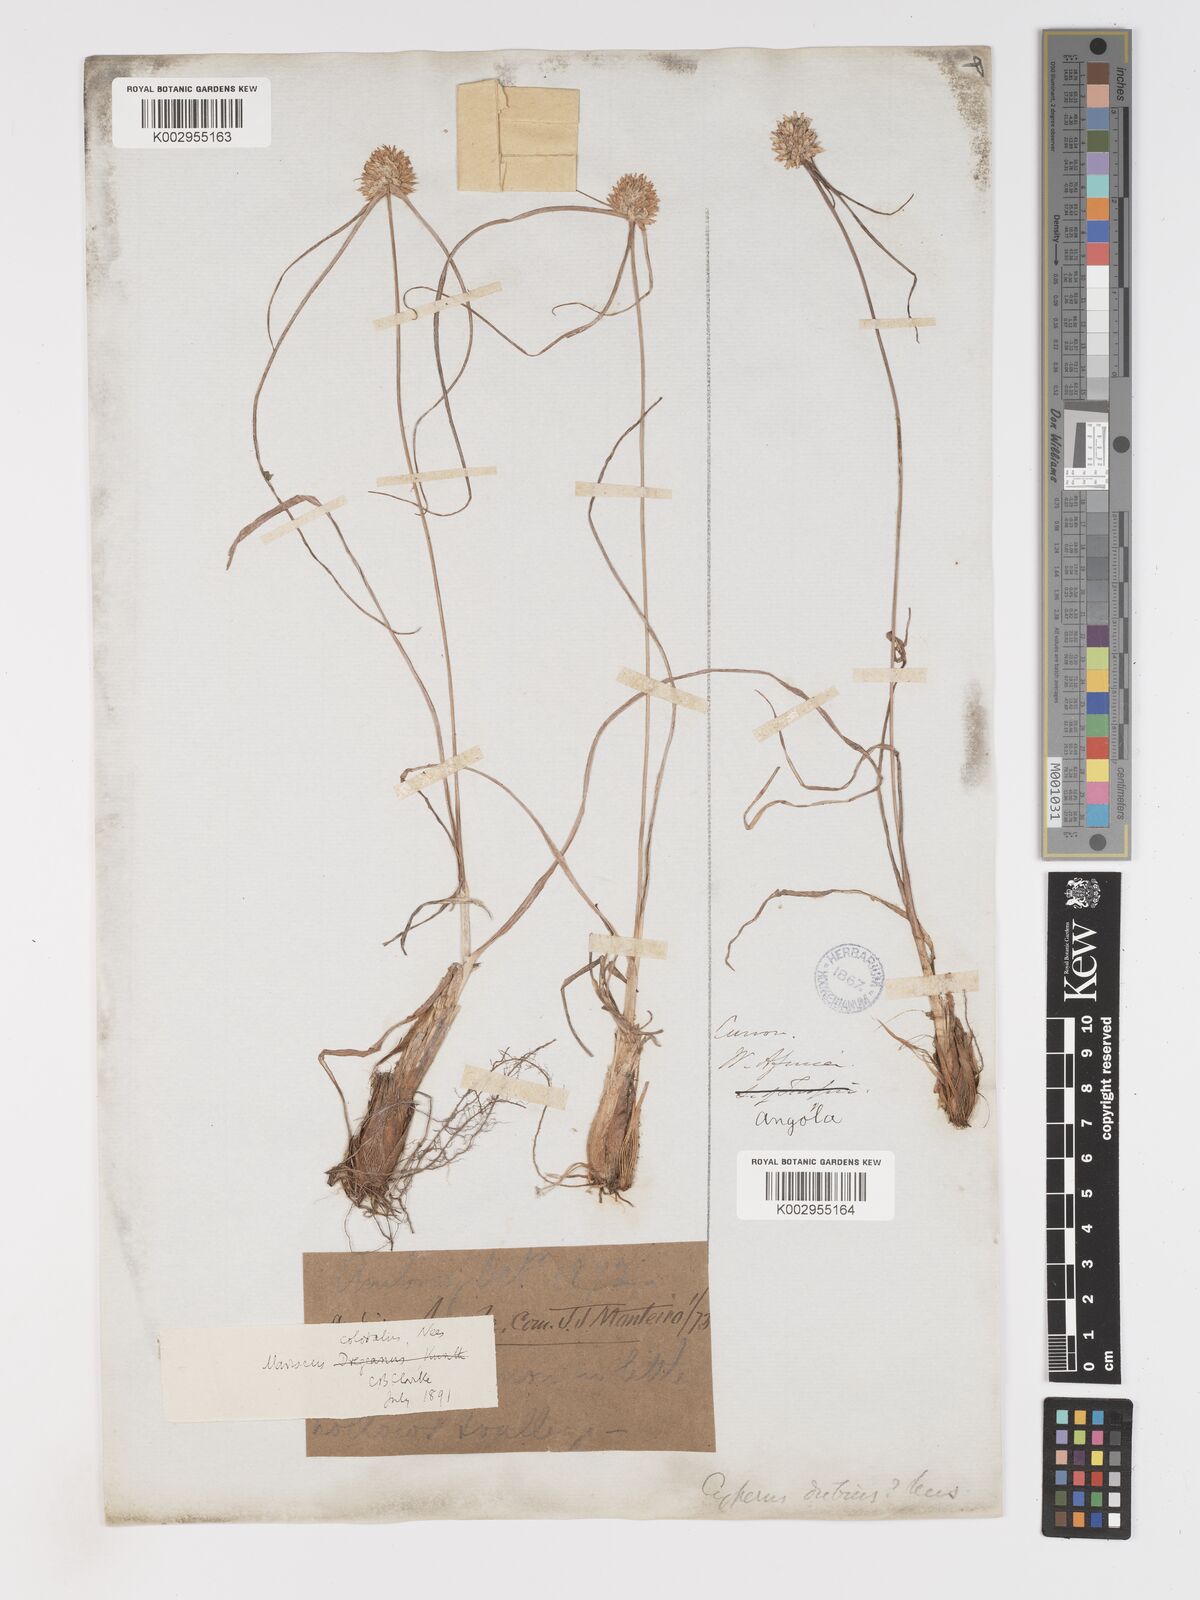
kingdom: Plantae
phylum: Tracheophyta
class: Liliopsida
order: Poales
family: Cyperaceae
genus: Cyperus
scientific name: Cyperus dubius
